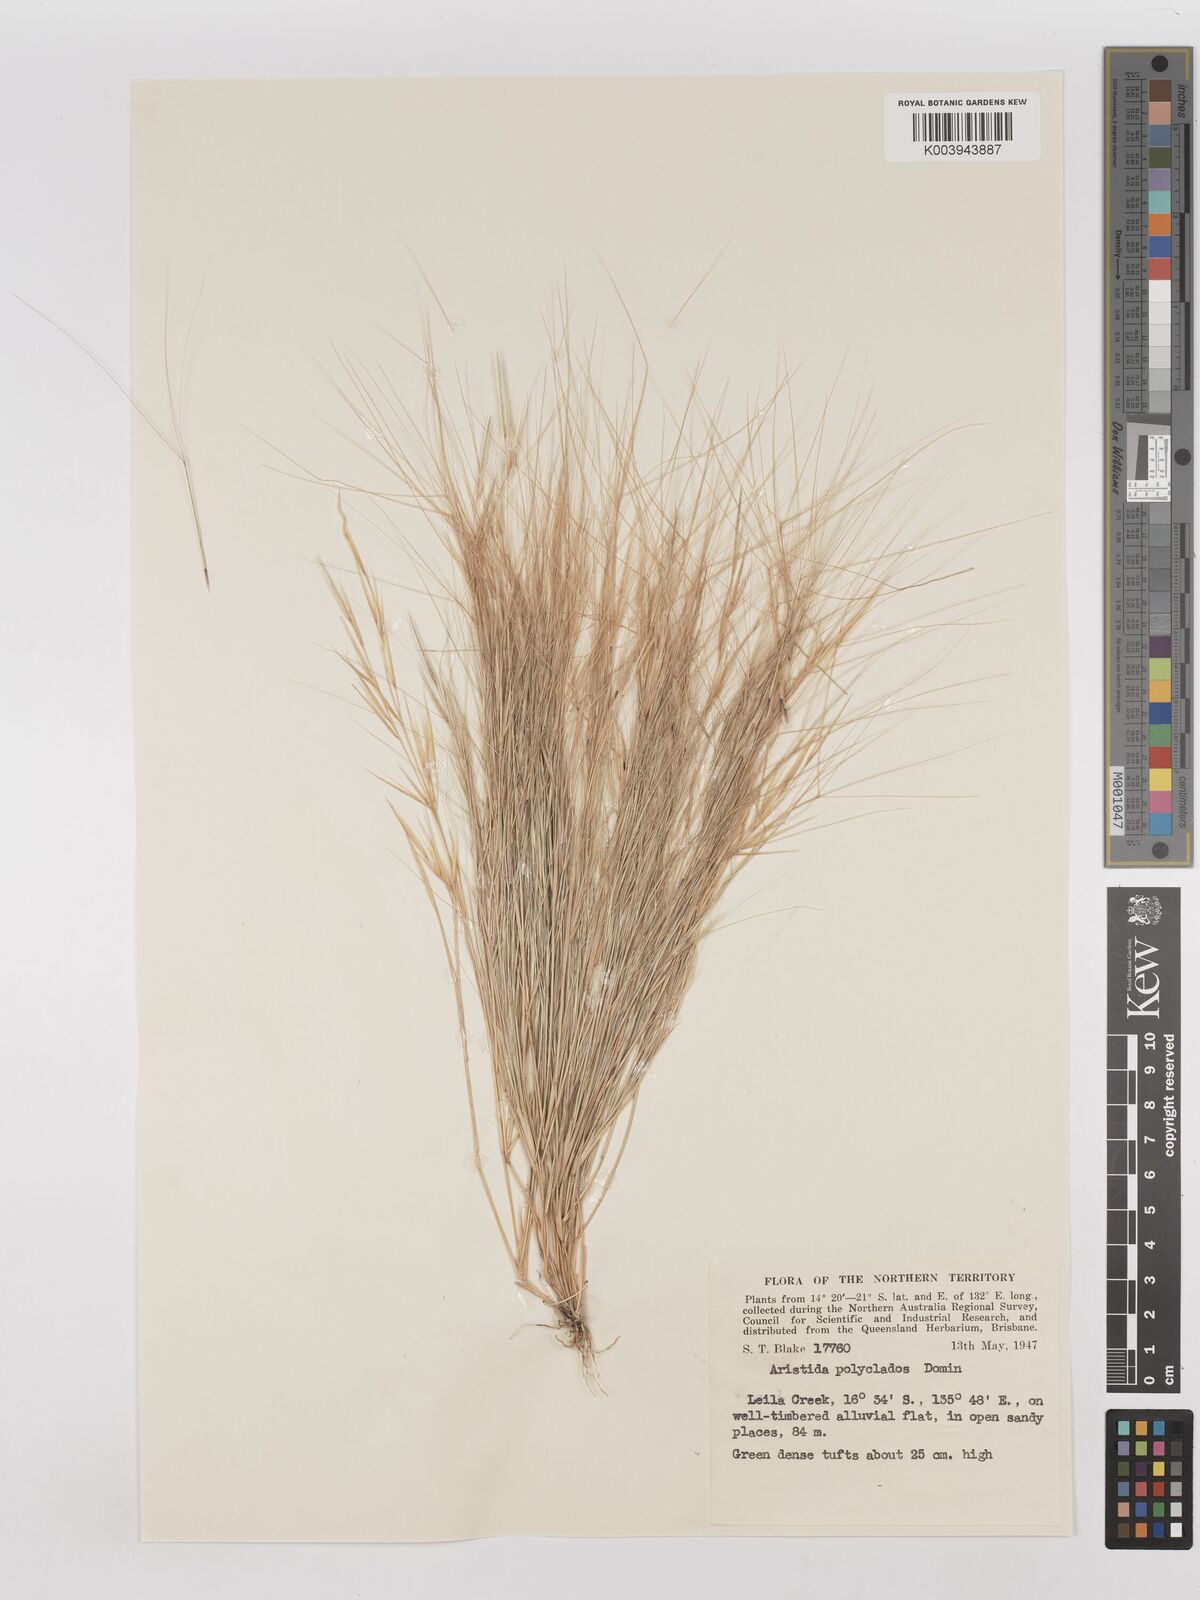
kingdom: Plantae
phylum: Tracheophyta
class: Liliopsida
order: Poales
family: Poaceae
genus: Aristida
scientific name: Aristida polyclados
